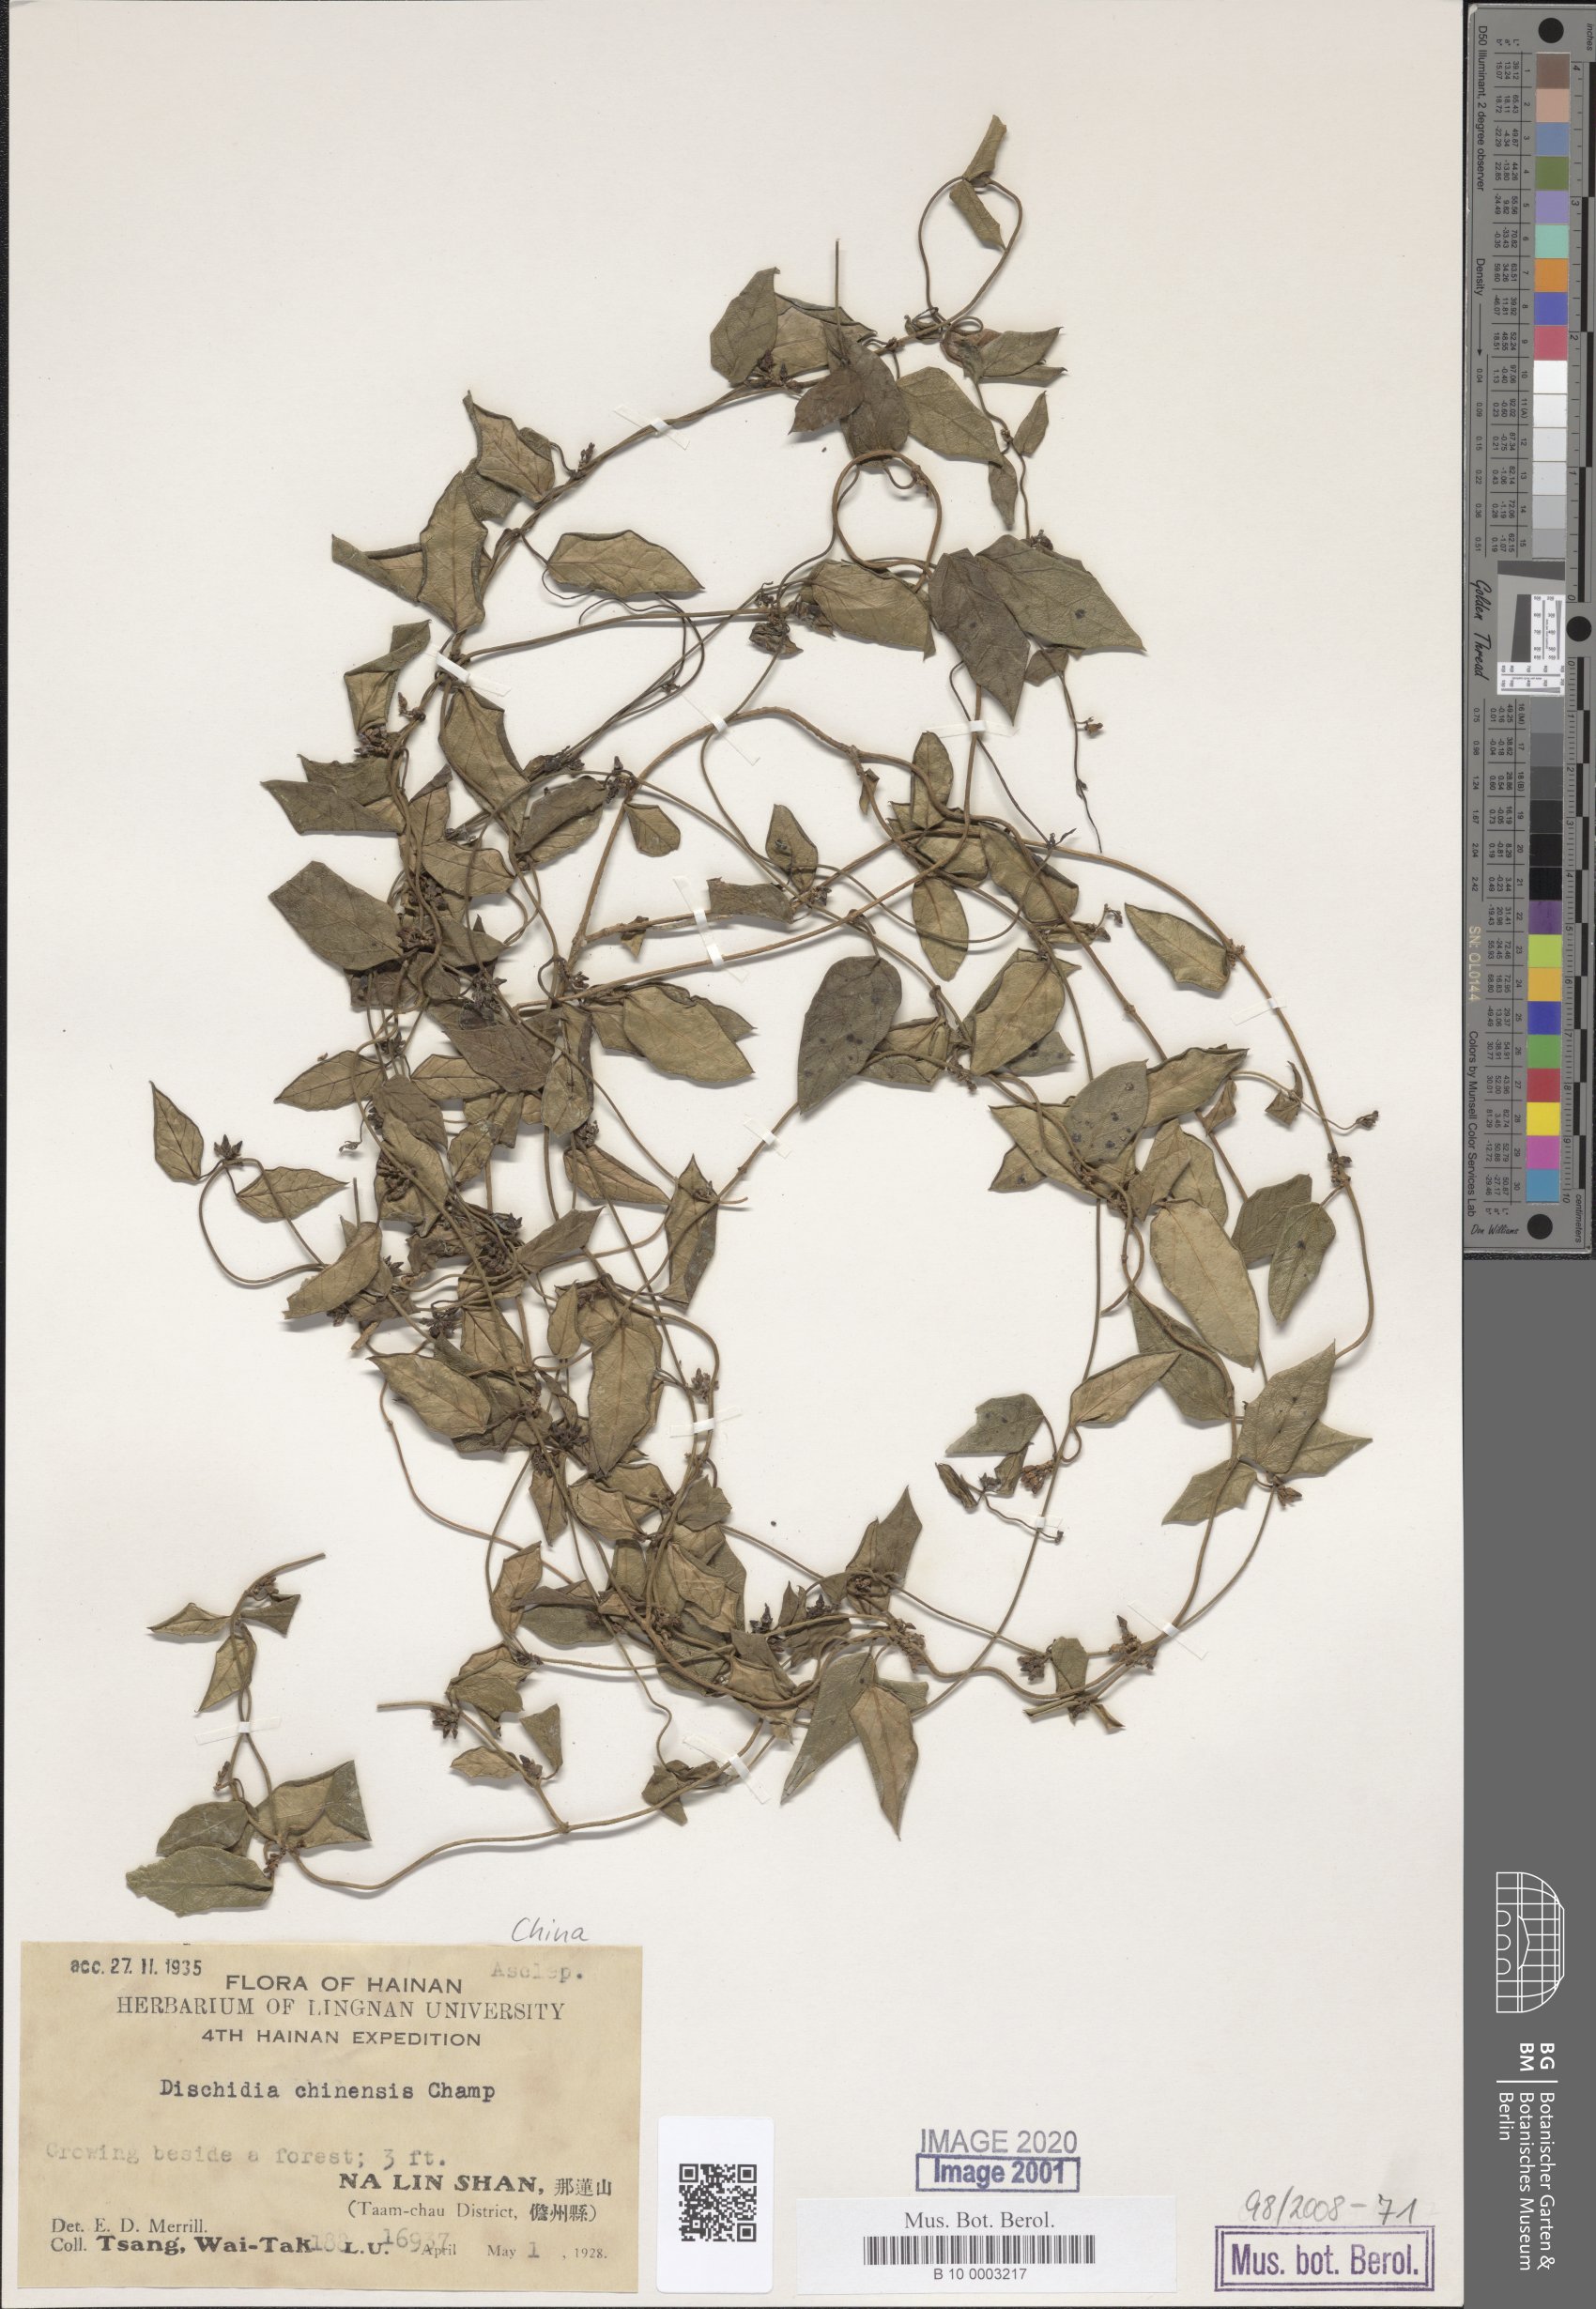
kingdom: Plantae
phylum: Tracheophyta
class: Magnoliopsida
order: Gentianales
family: Apocynaceae
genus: Dischidia
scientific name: Dischidia chinensis
